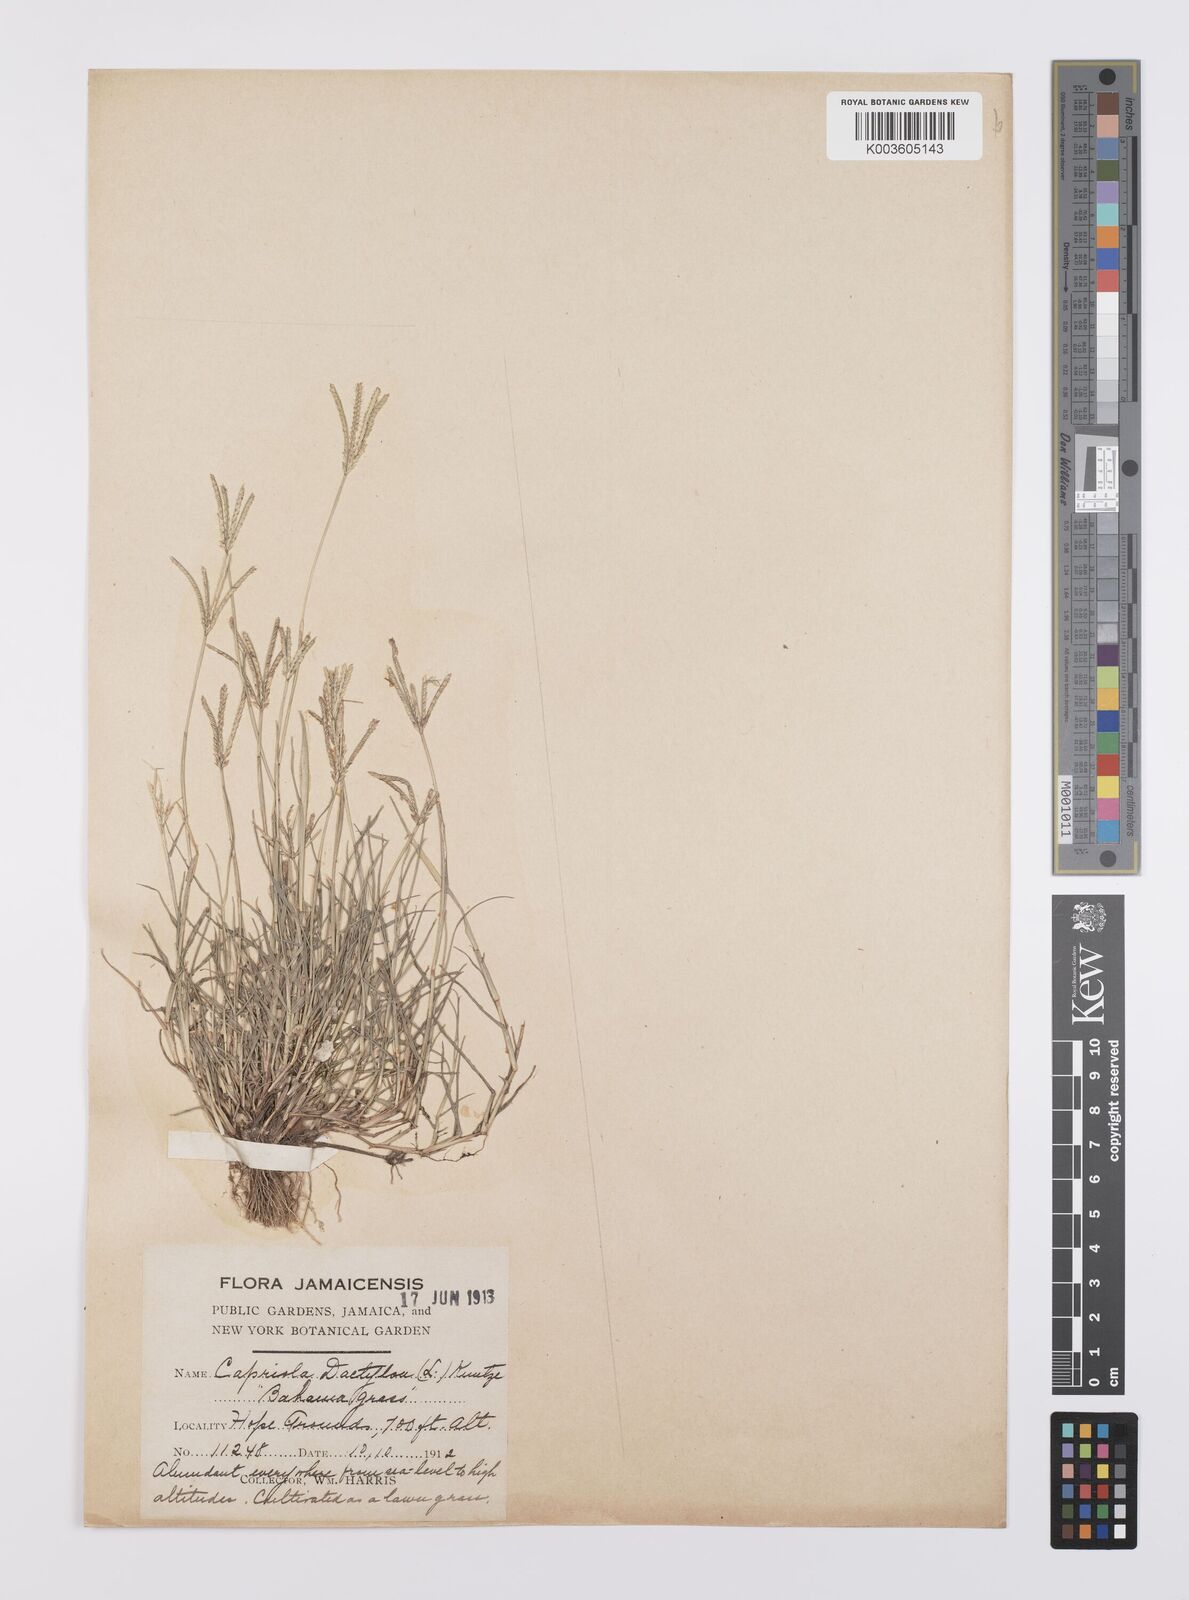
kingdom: Plantae
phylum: Tracheophyta
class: Liliopsida
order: Poales
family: Poaceae
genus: Cynodon
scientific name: Cynodon dactylon
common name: Bermuda grass
